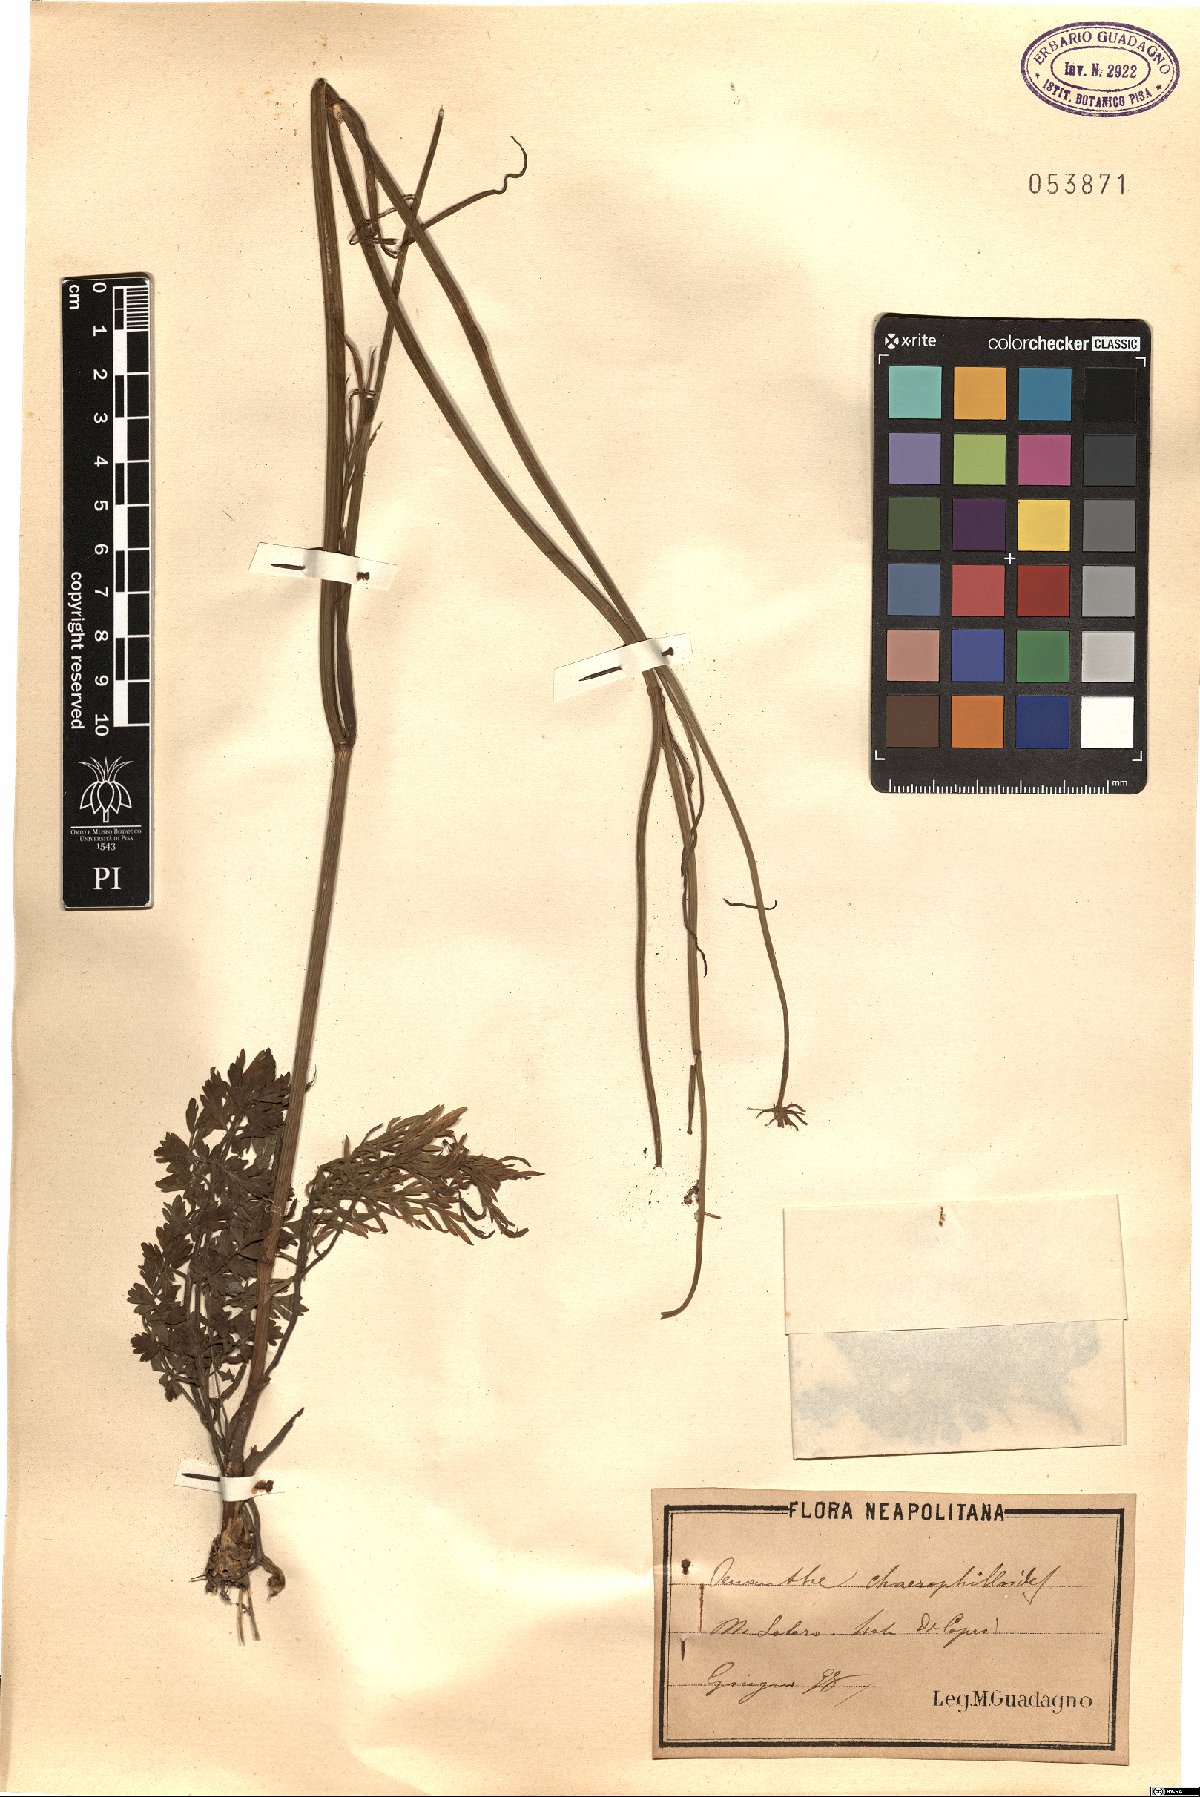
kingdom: Plantae
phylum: Tracheophyta
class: Magnoliopsida
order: Apiales
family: Apiaceae
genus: Oenanthe
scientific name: Oenanthe pimpinelloides
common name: Corky-fruited water-dropwort
